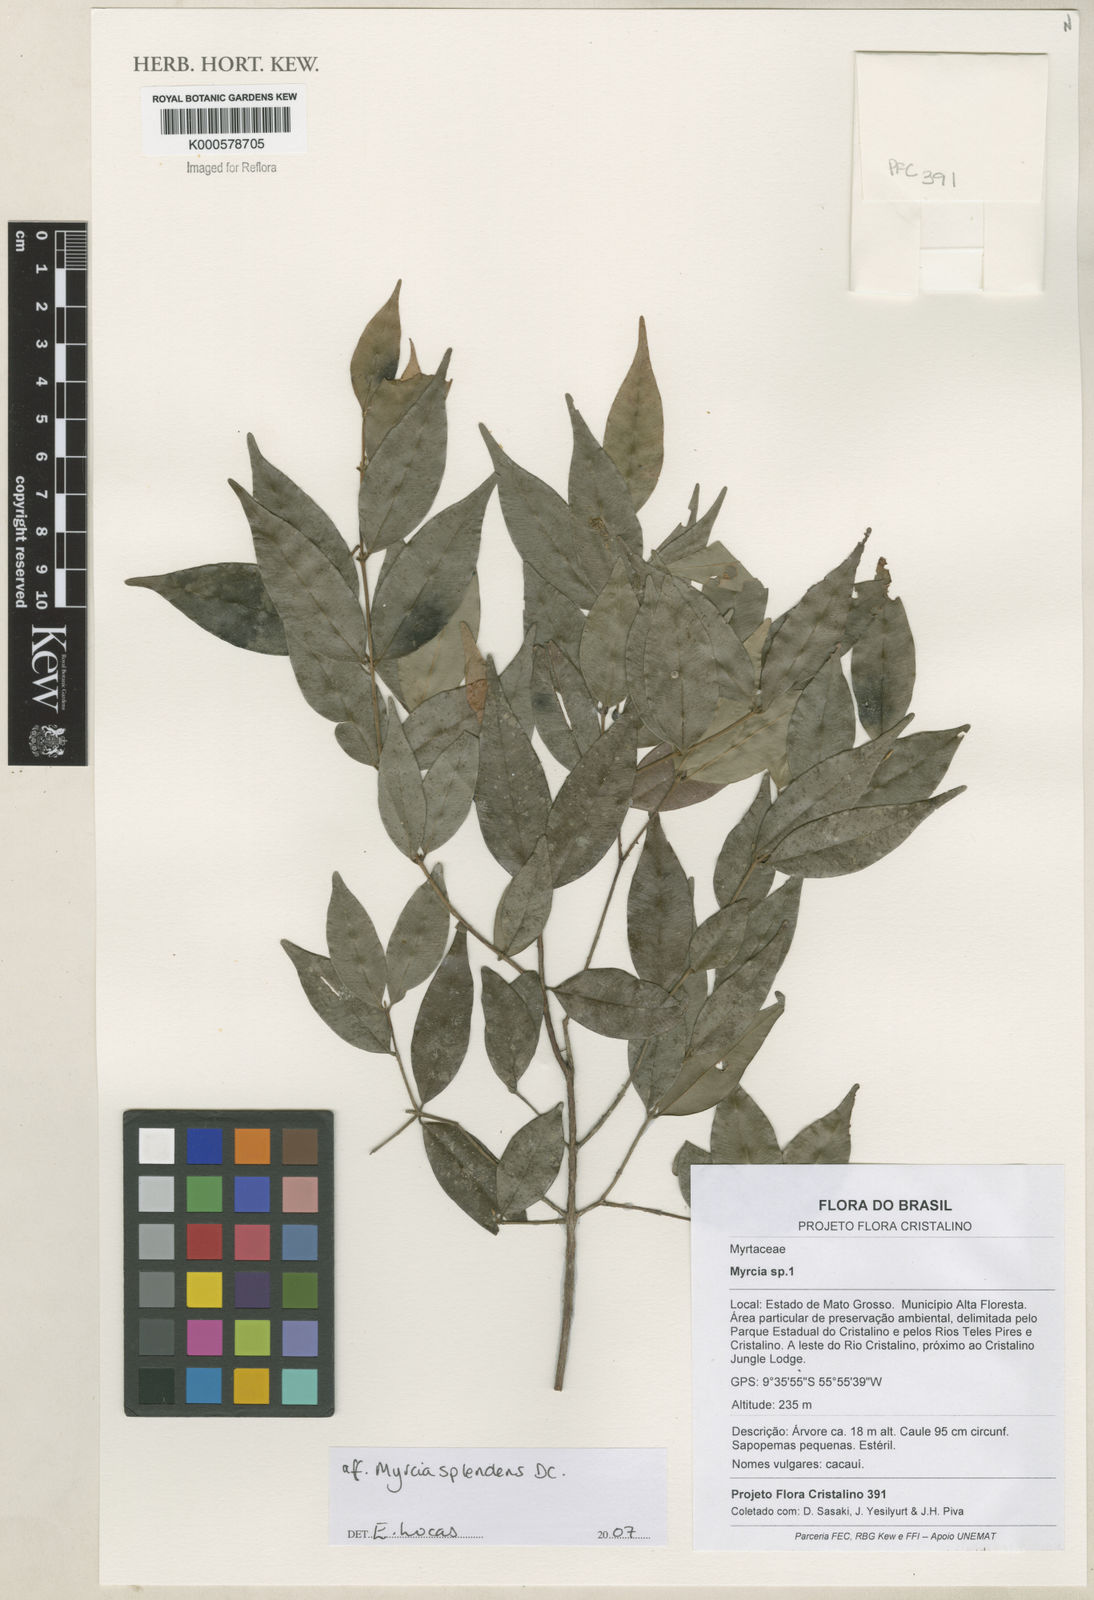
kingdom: Plantae
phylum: Tracheophyta
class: Magnoliopsida
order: Myrtales
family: Myrtaceae
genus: Myrcia
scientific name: Myrcia splendens
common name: Surinam cherry
